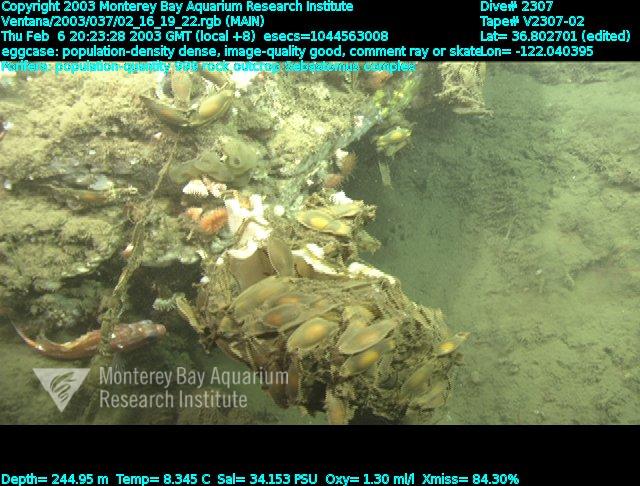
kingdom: Animalia
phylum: Porifera
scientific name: Porifera
